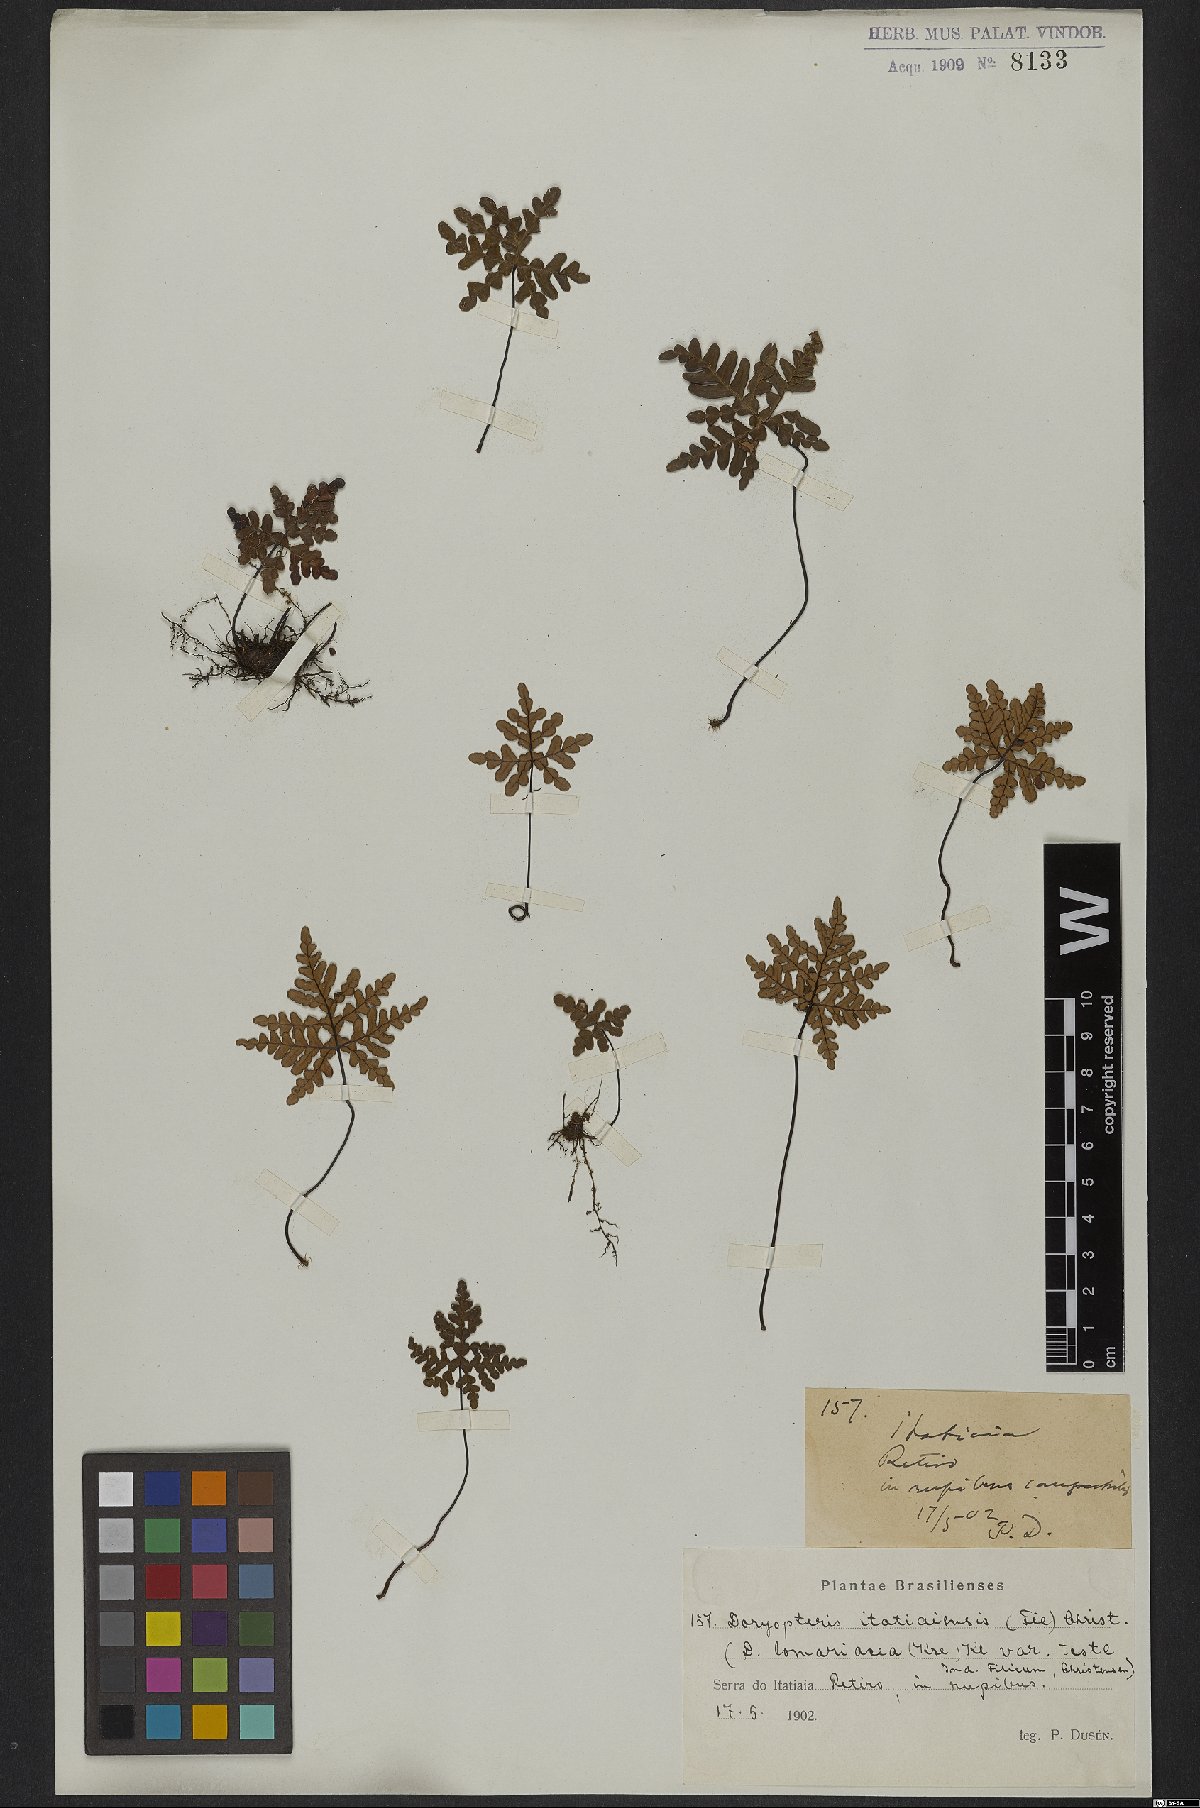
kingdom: Plantae
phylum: Tracheophyta
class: Polypodiopsida
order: Polypodiales
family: Pteridaceae
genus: Lytoneuron
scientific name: Lytoneuron lomariaceum
